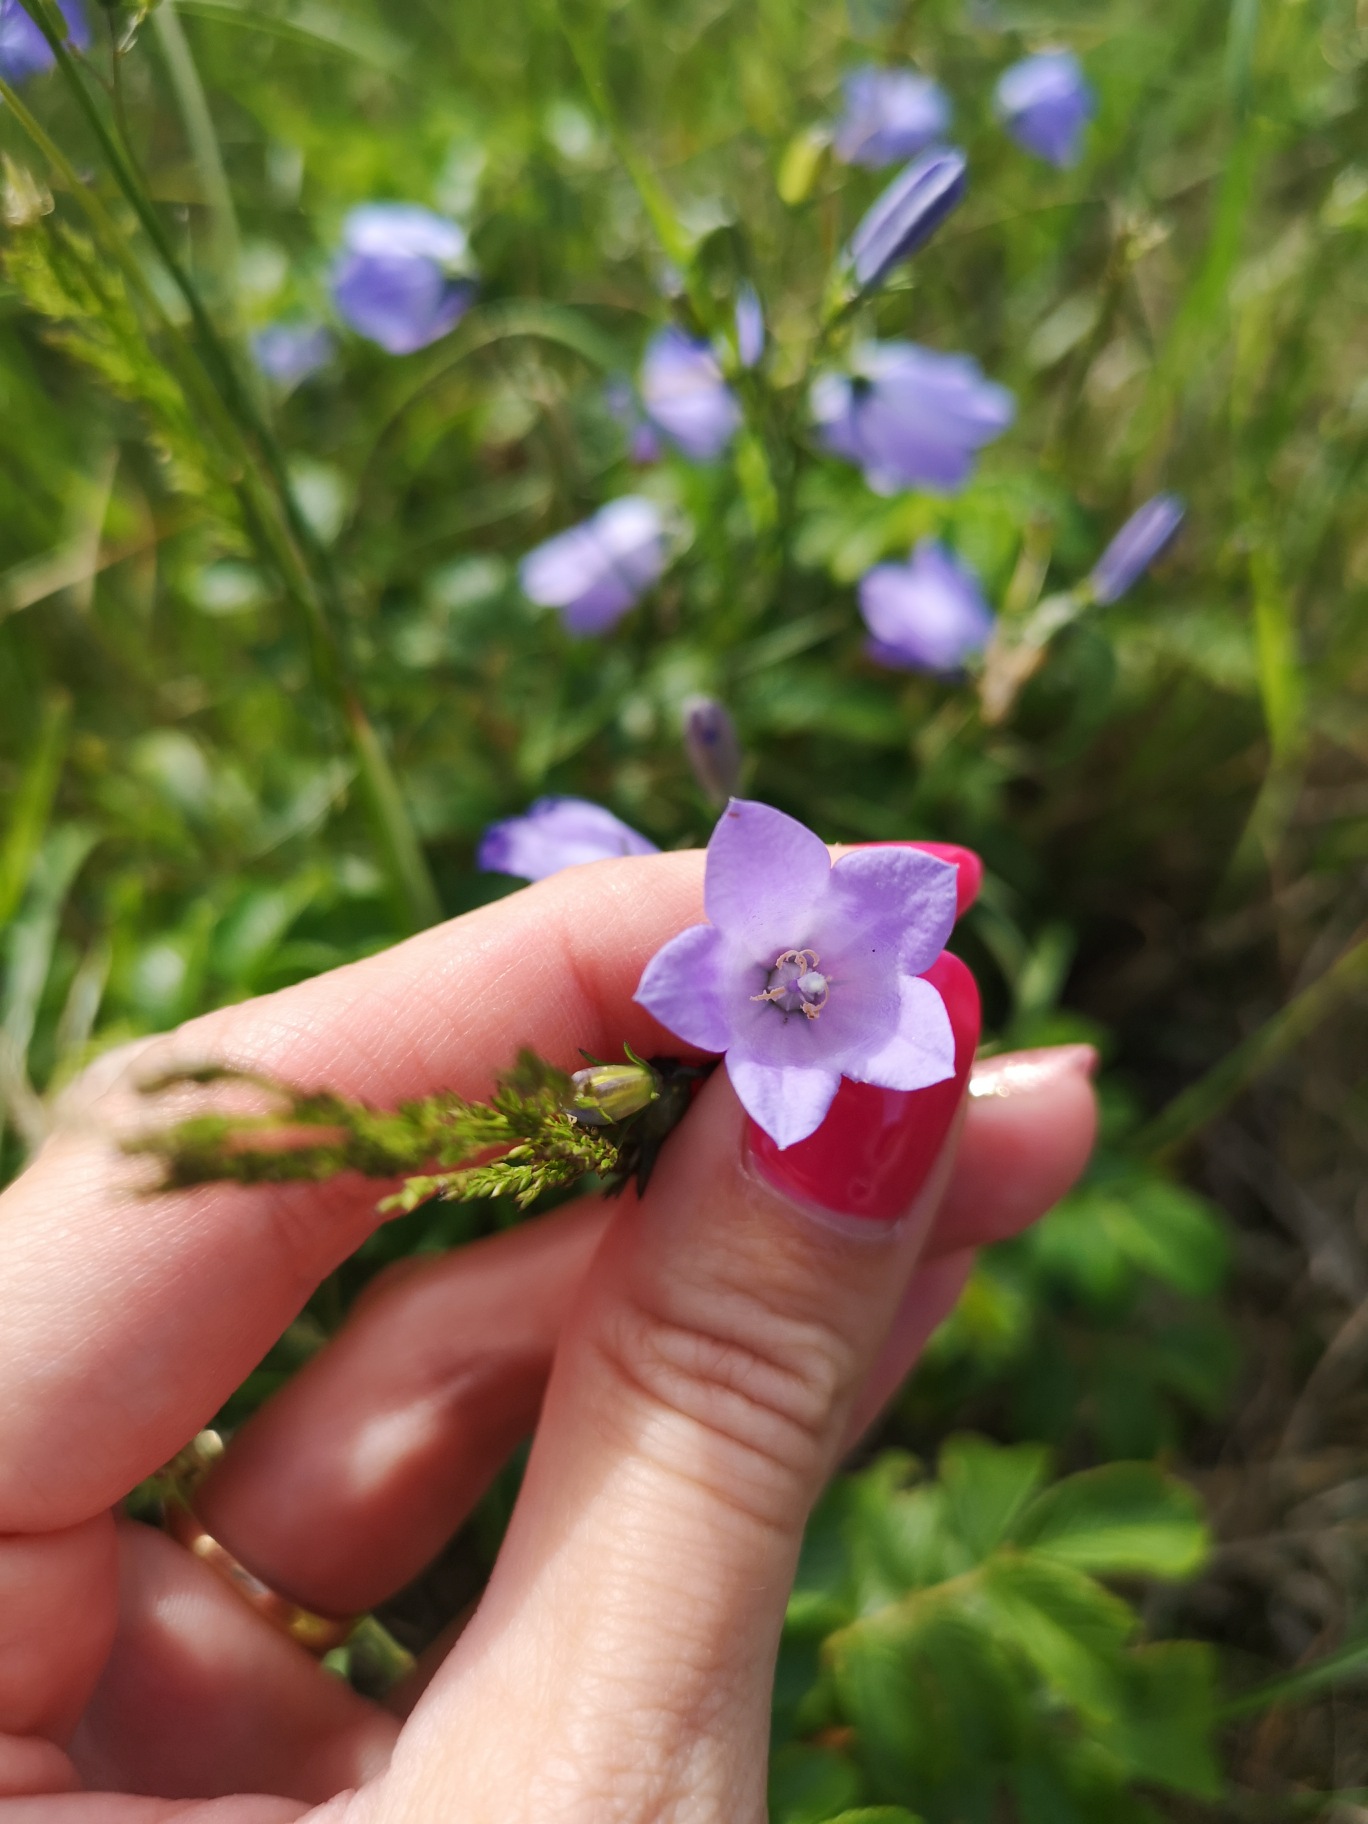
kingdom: Plantae
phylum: Tracheophyta
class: Magnoliopsida
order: Asterales
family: Campanulaceae
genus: Campanula
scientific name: Campanula rotundifolia
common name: Liden klokke
